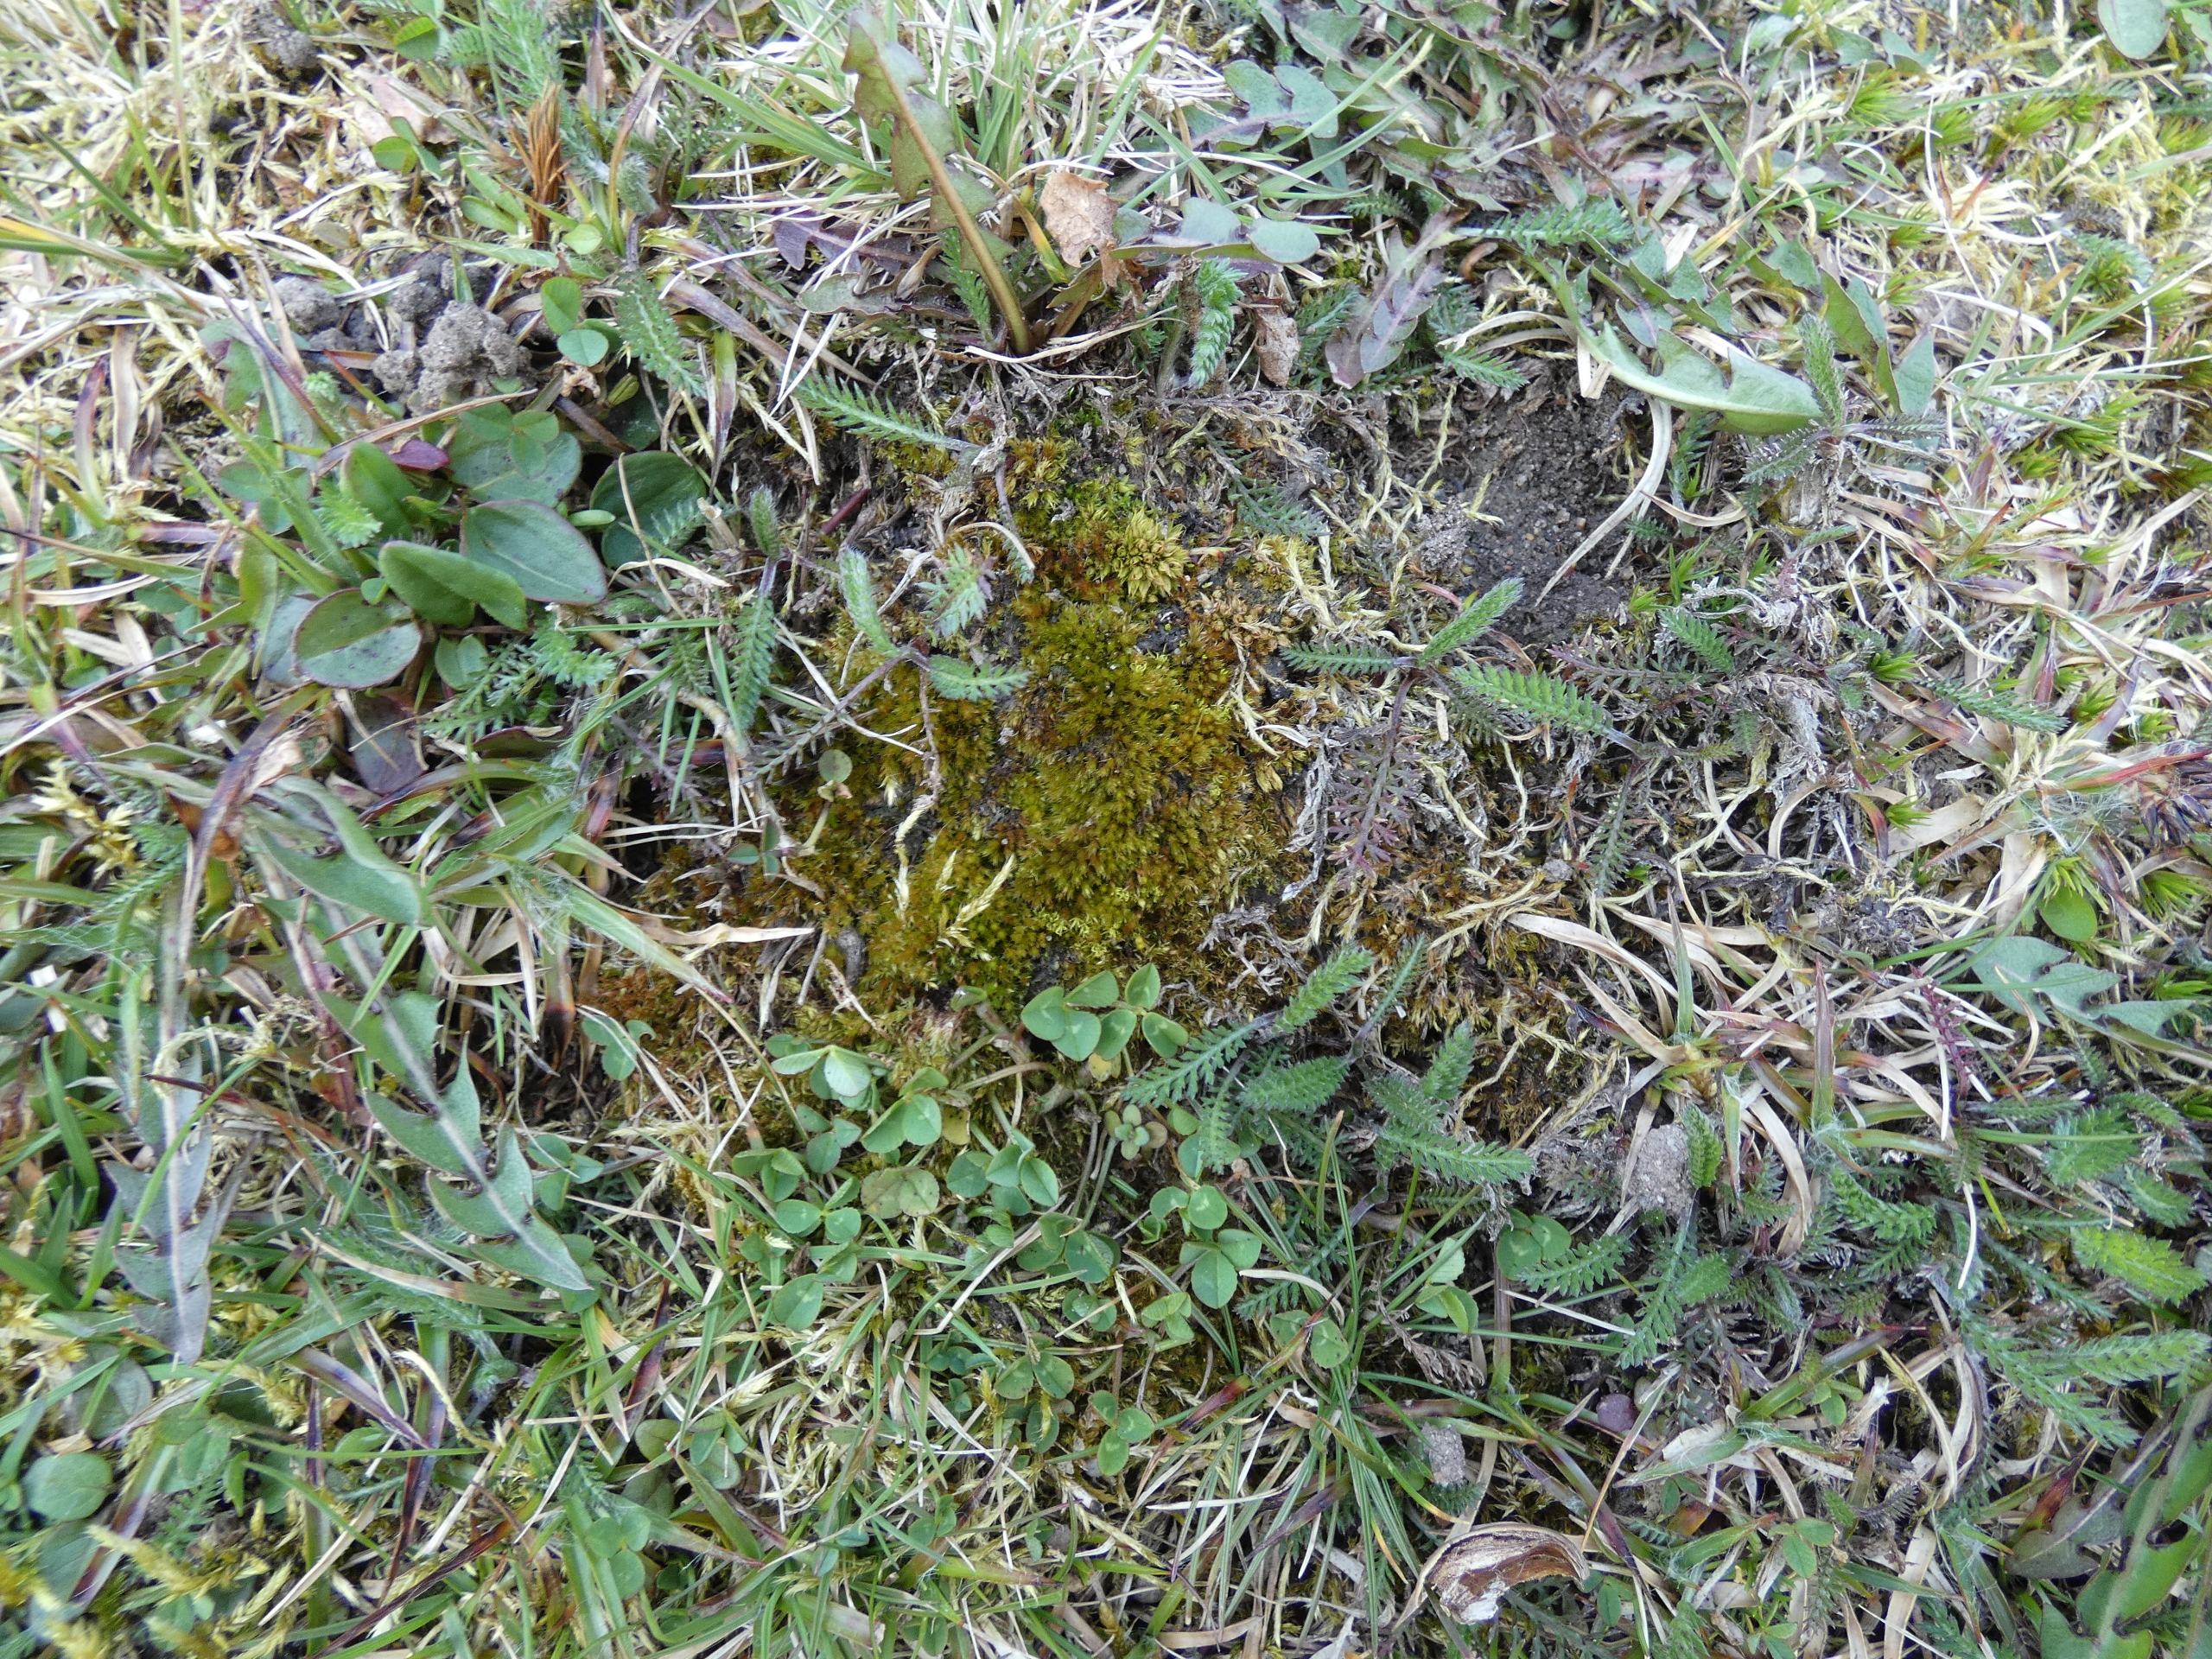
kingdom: Plantae
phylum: Bryophyta
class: Bryopsida
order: Pottiales
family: Pottiaceae
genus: Tortula
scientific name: Tortula acaulon
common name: Tilspidset dværgmos
